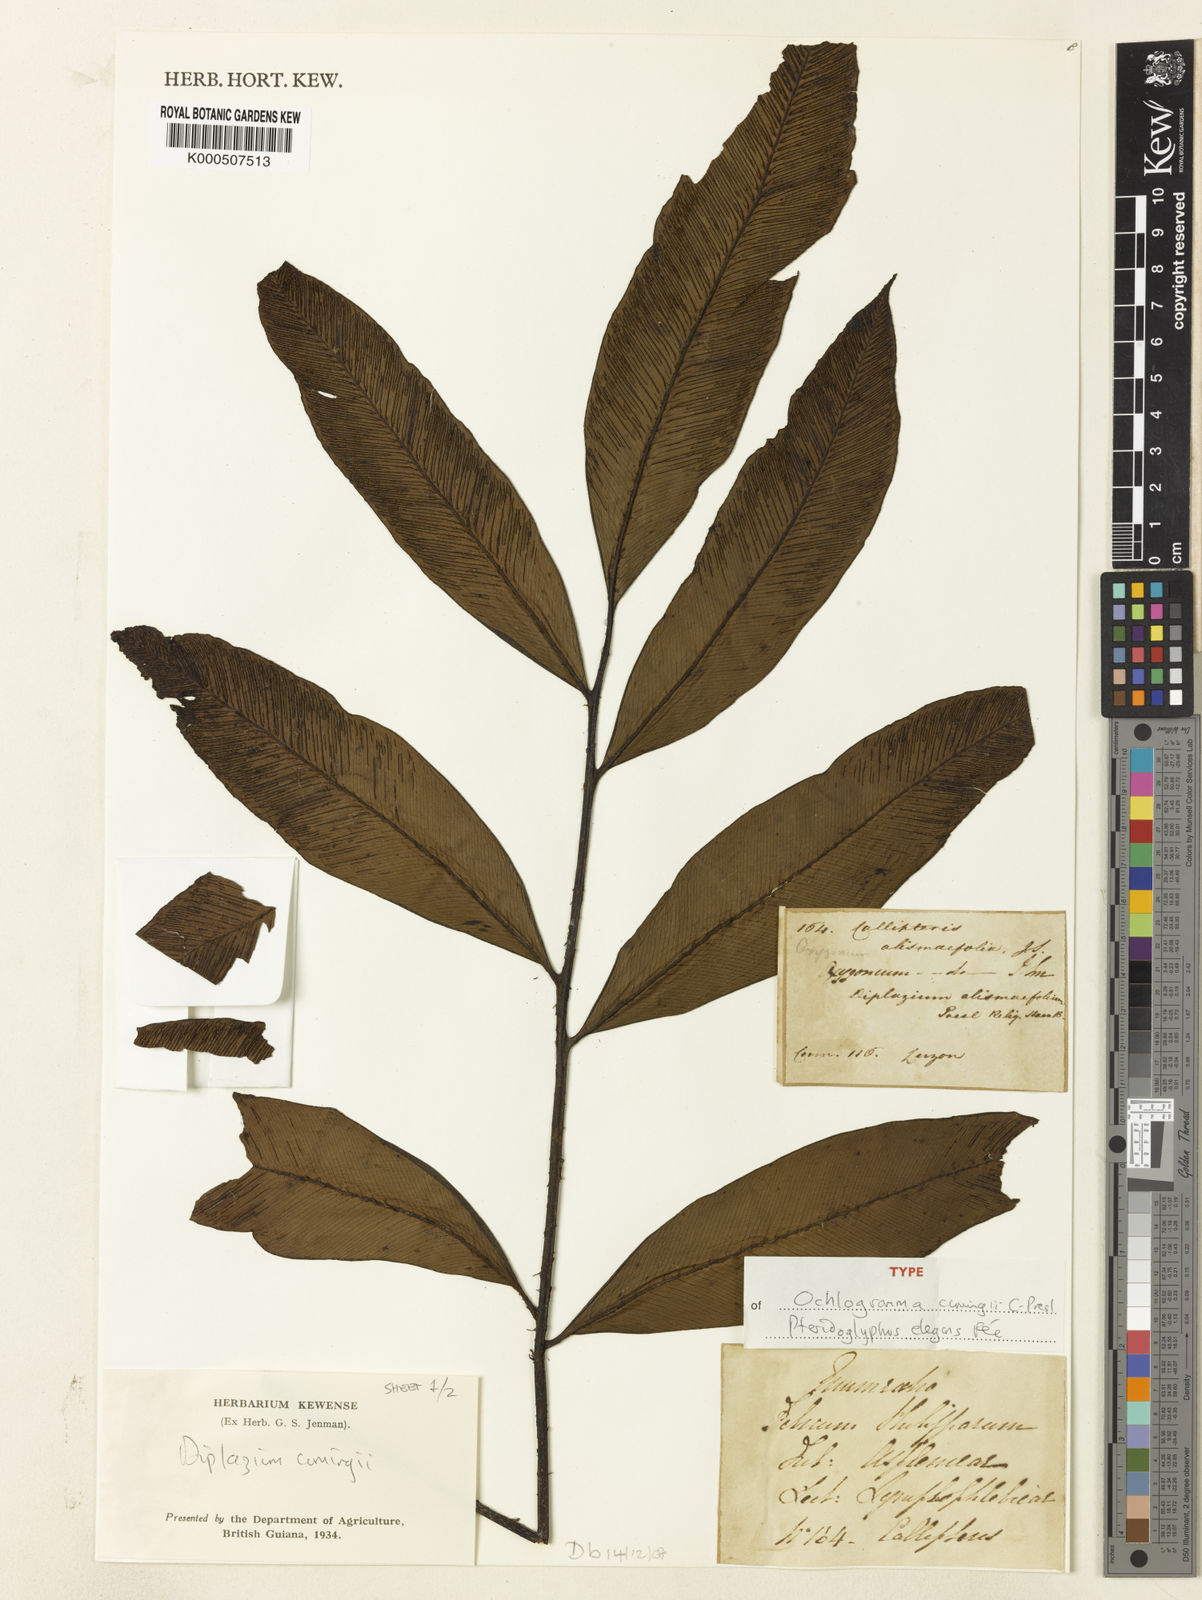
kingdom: Plantae
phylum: Tracheophyta
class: Polypodiopsida
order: Polypodiales
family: Athyriaceae
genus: Diplazium
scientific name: Diplazium cumingii
